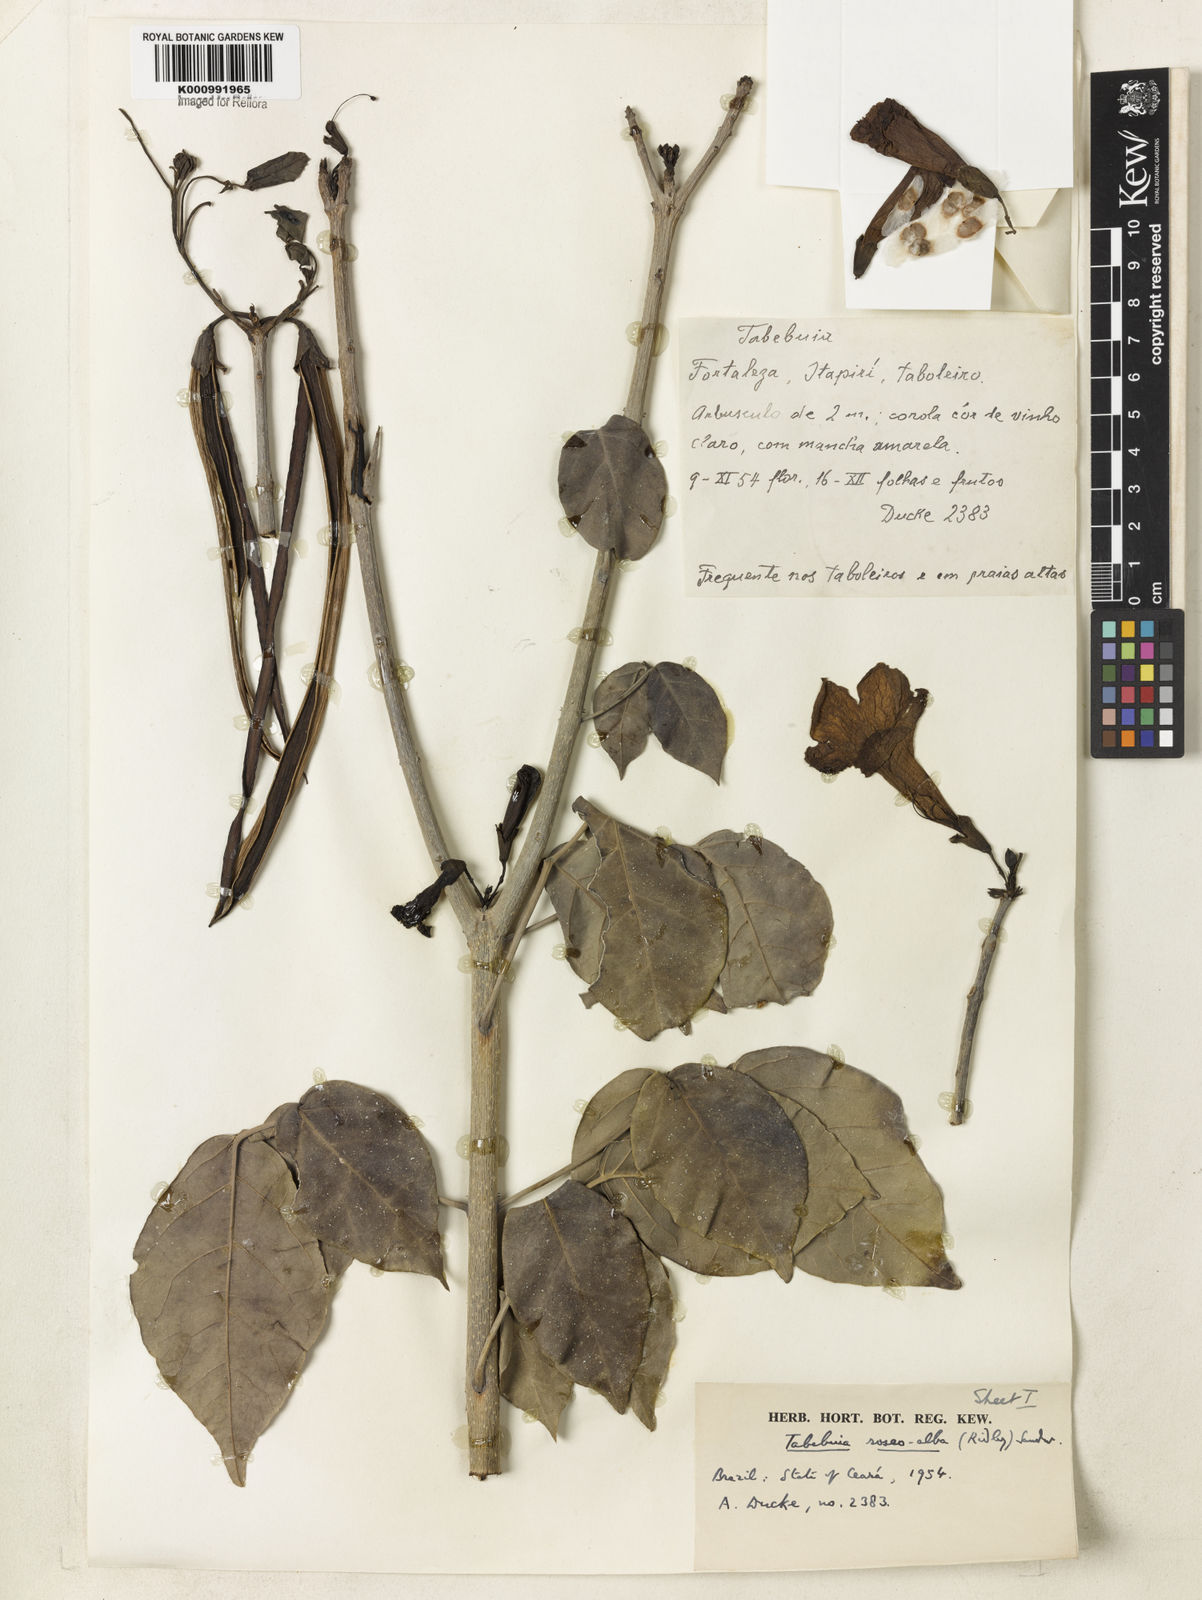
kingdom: Plantae
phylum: Tracheophyta
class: Magnoliopsida
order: Lamiales
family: Bignoniaceae
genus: Tabebuia
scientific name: Tabebuia roseoalba
